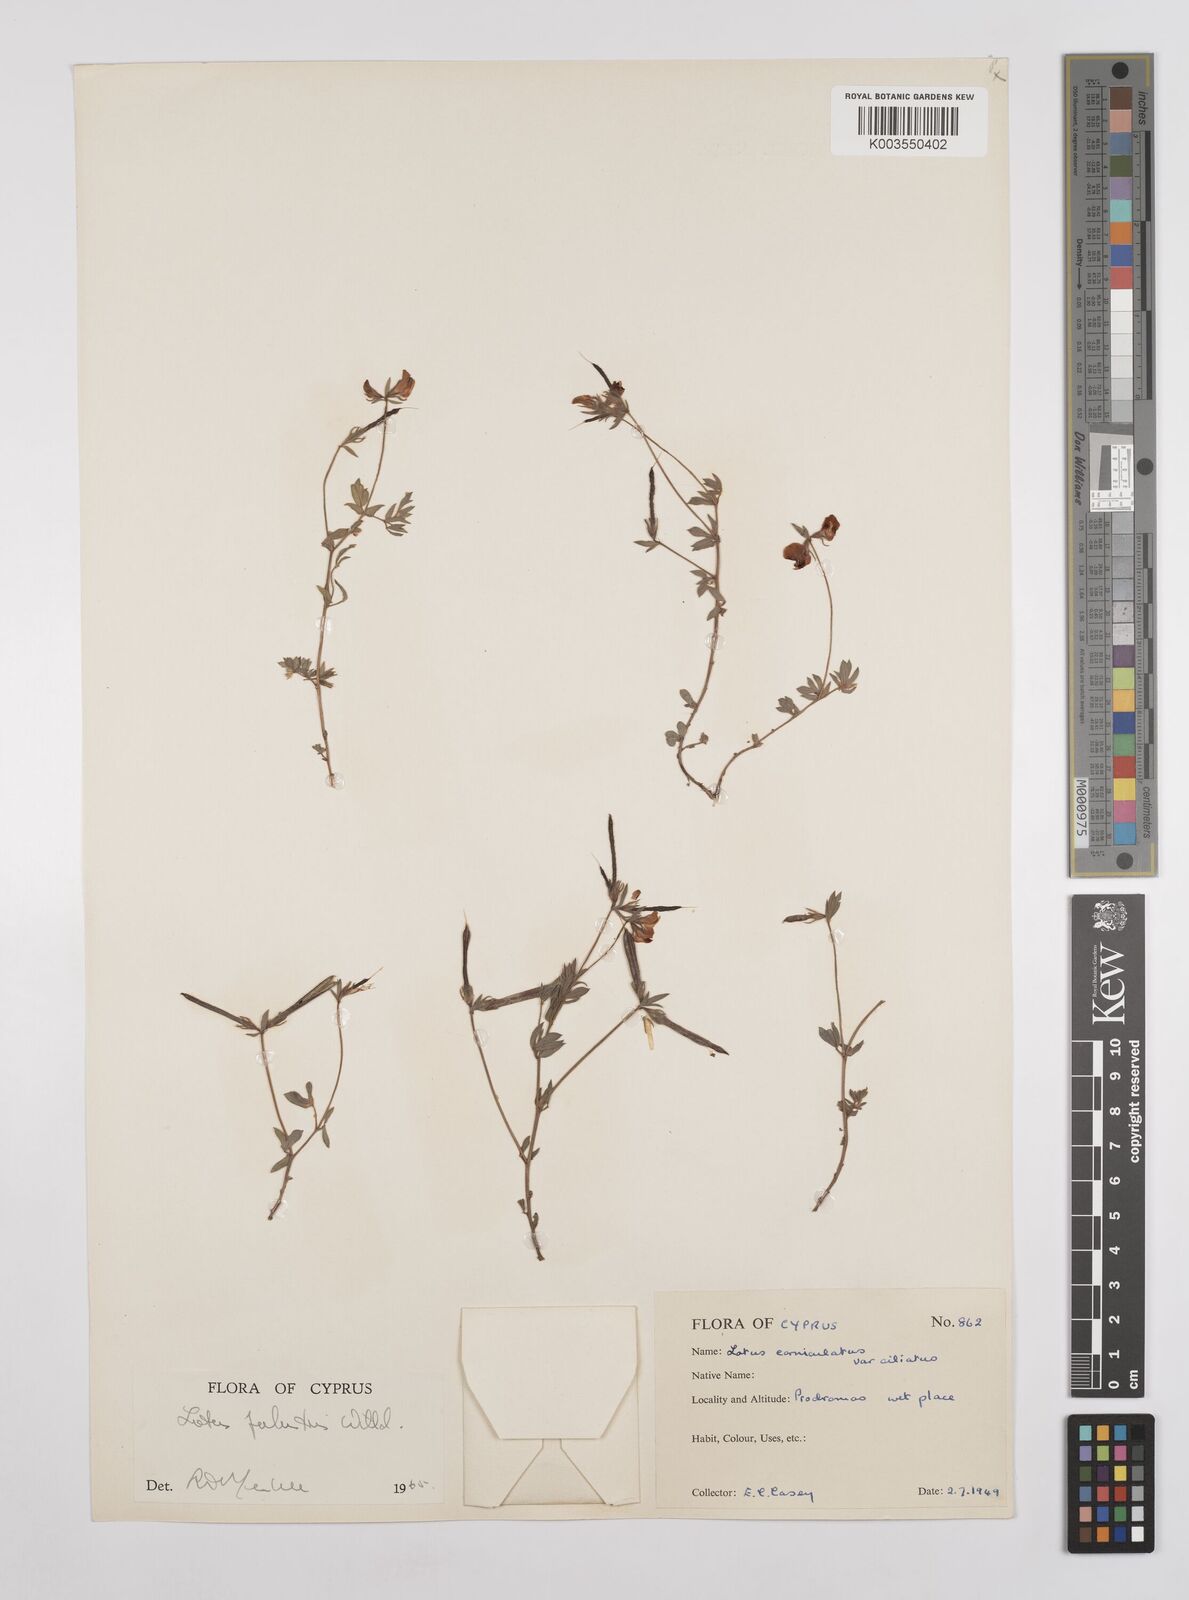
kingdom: Plantae
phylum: Tracheophyta
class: Magnoliopsida
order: Fabales
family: Fabaceae
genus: Lotus
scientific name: Lotus palustris
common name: Large birds-foot trefoil
